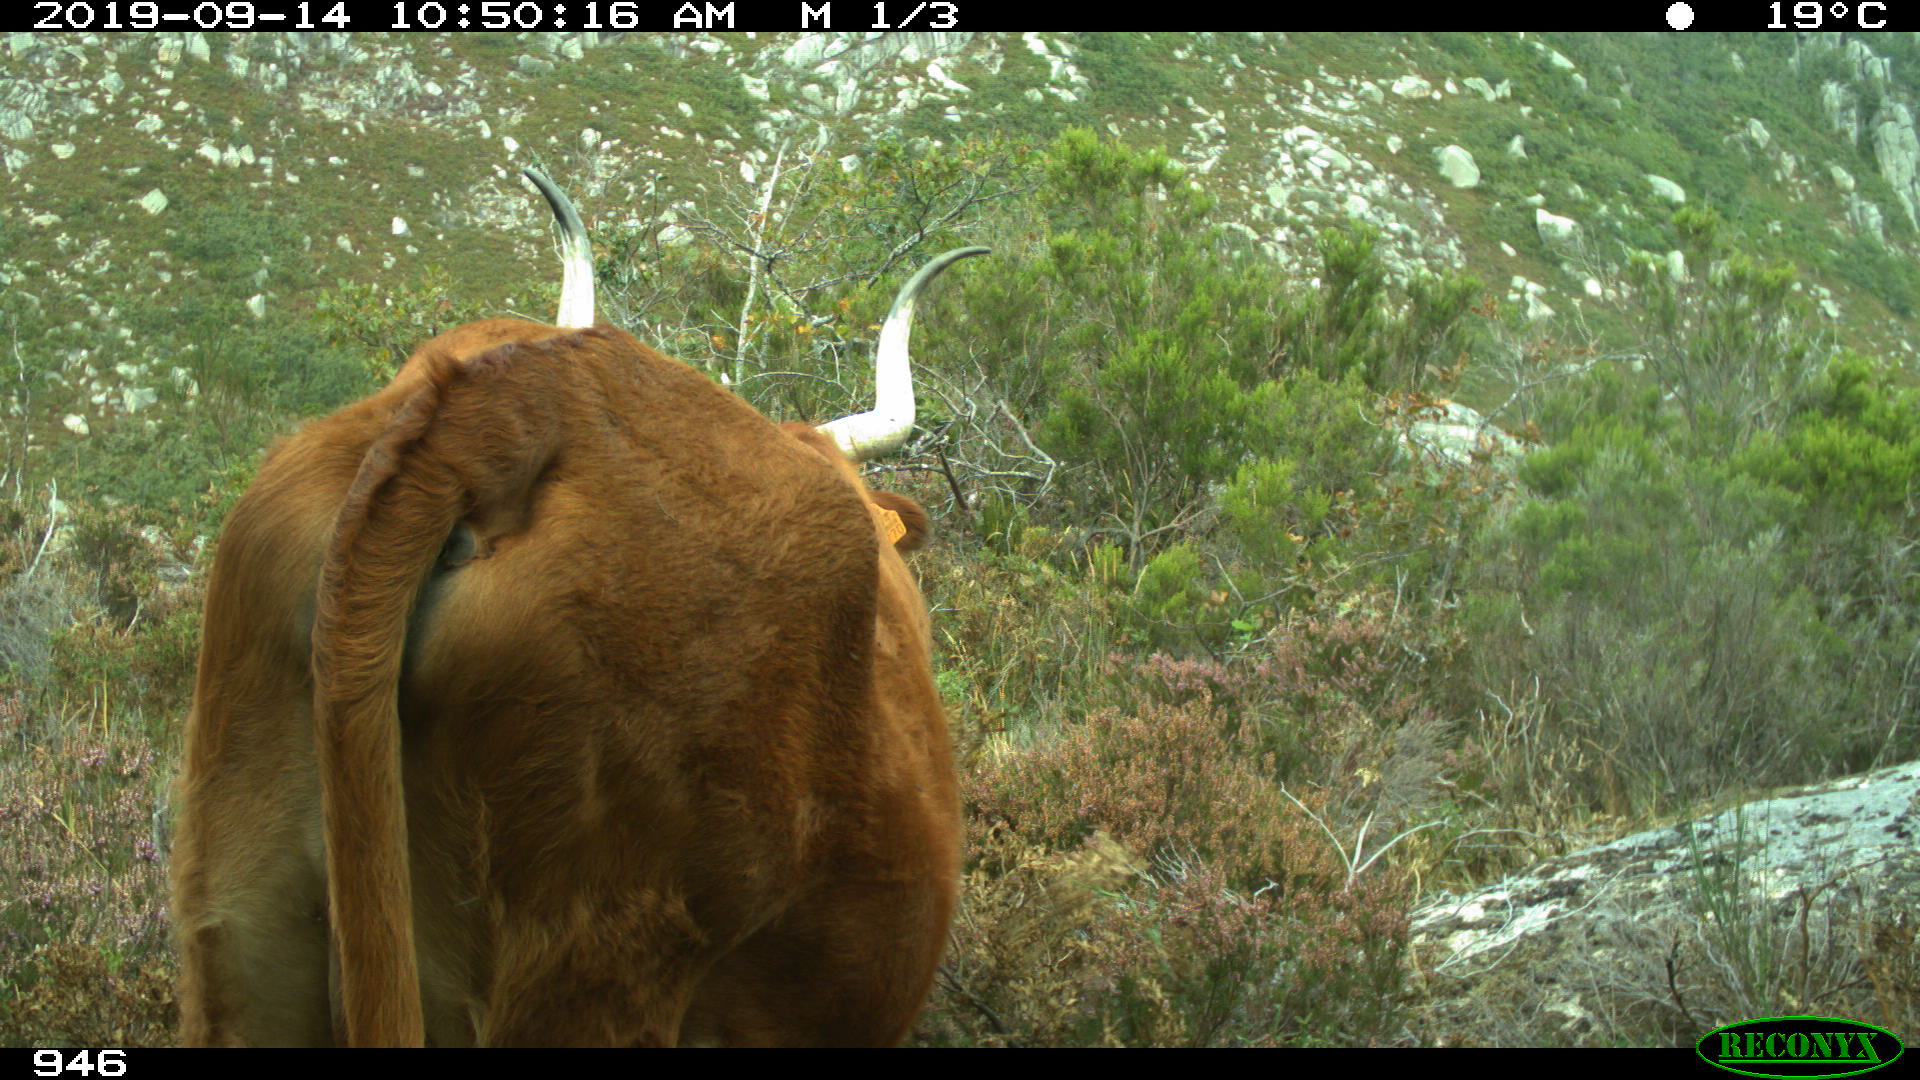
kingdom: Animalia
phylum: Chordata
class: Mammalia
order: Artiodactyla
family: Bovidae
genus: Bos
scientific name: Bos taurus
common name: Domesticated cattle
